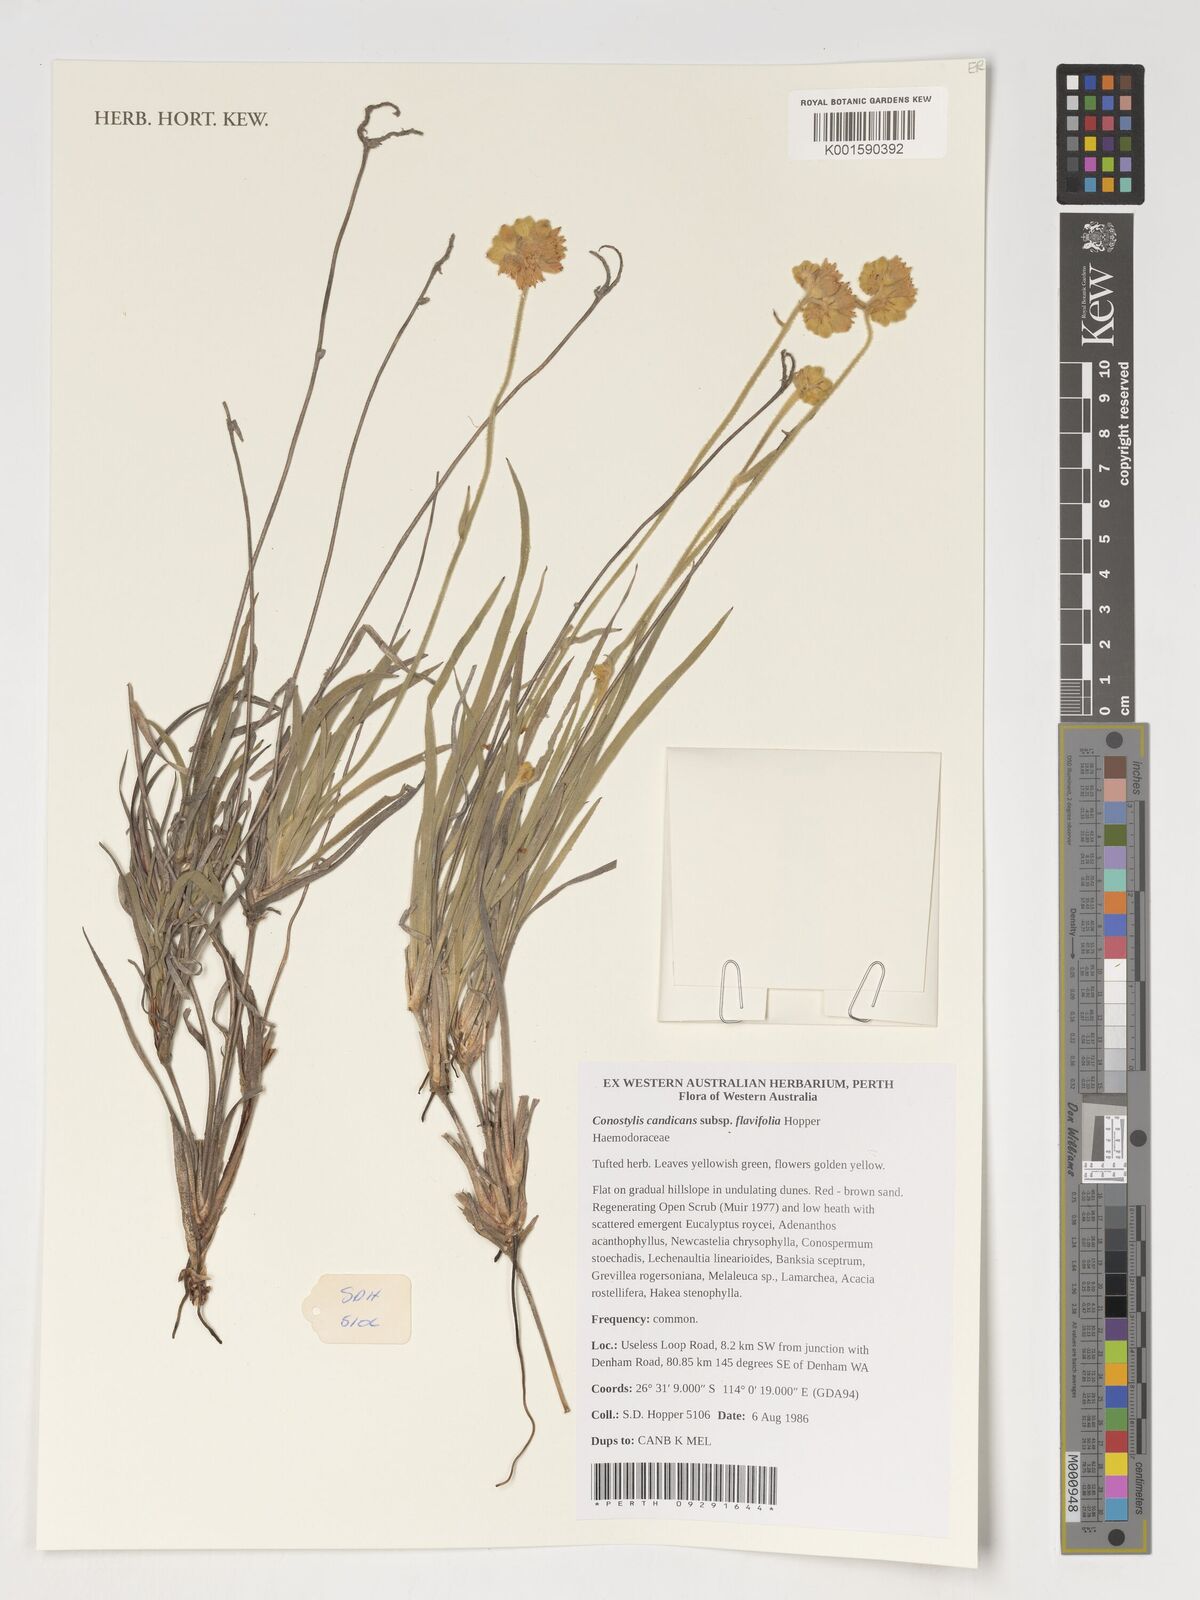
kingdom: Plantae
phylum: Tracheophyta
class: Liliopsida
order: Commelinales
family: Haemodoraceae
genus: Conostylis
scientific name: Conostylis candicans
